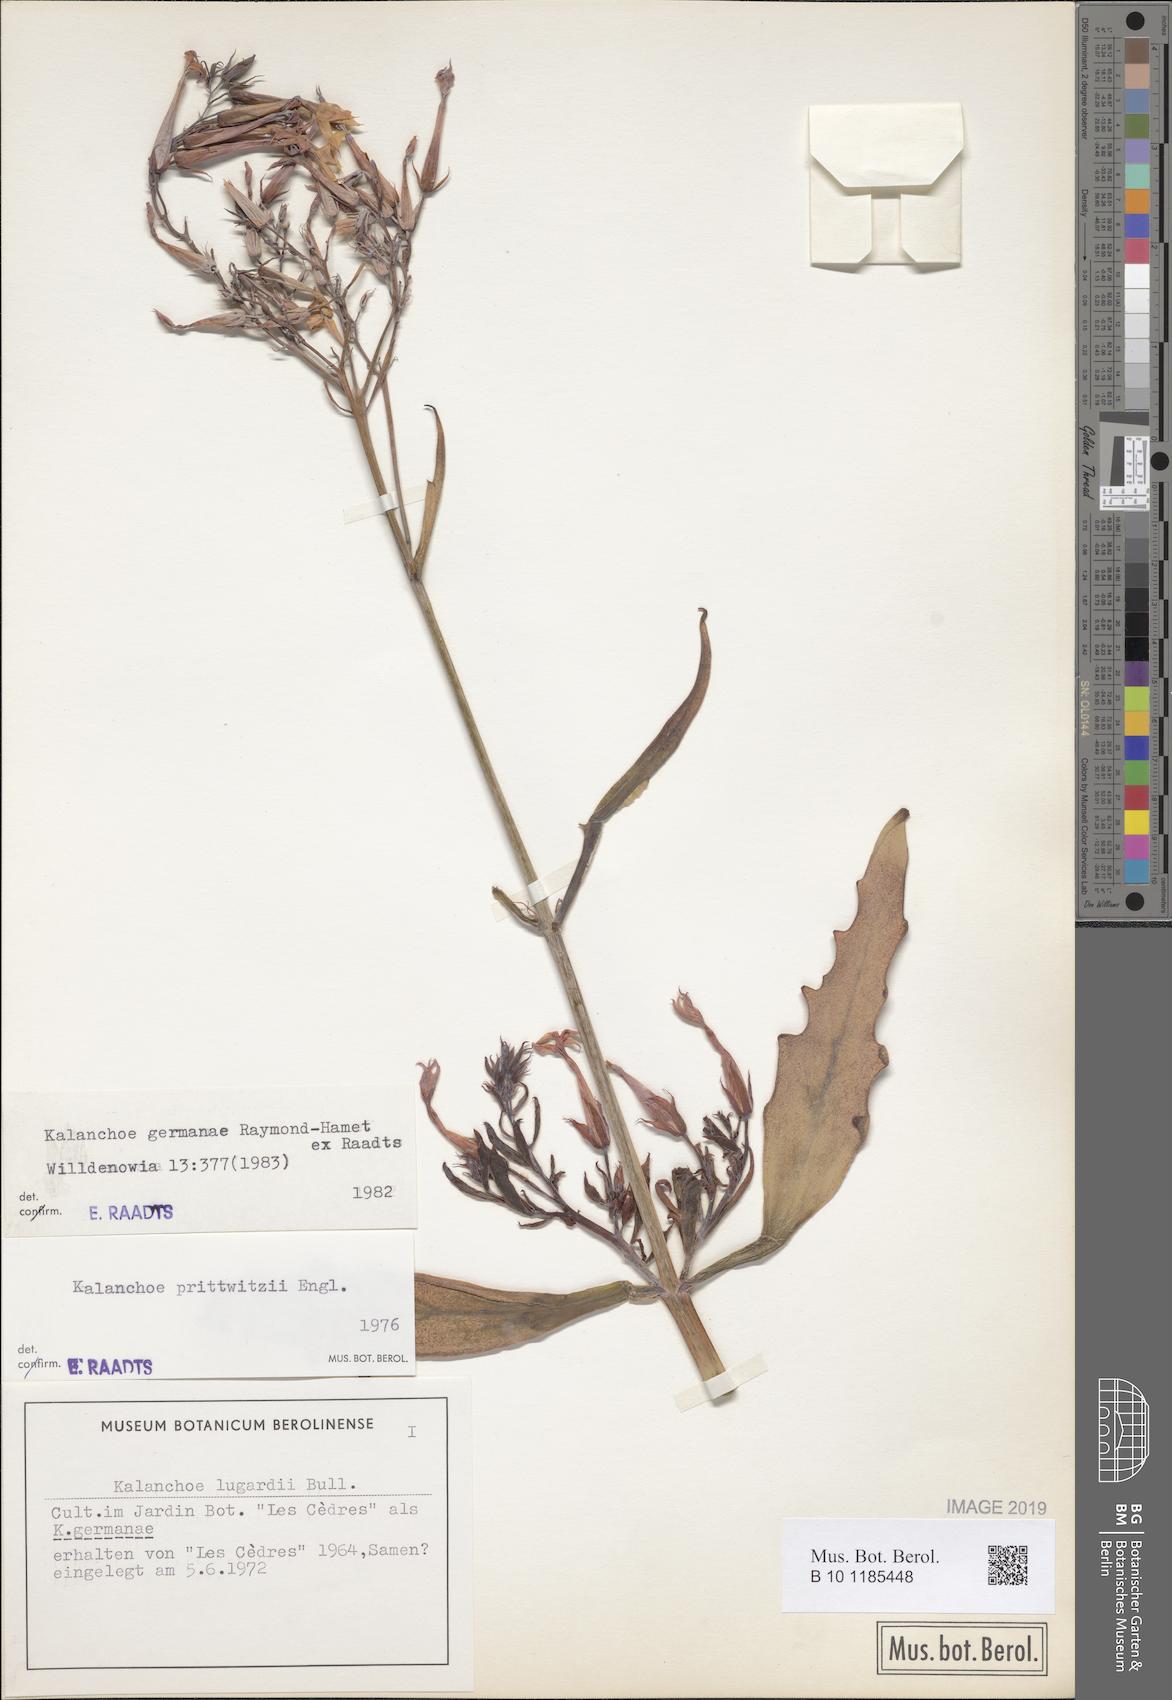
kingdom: Plantae
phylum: Tracheophyta
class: Magnoliopsida
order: Saxifragales
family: Crassulaceae
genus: Kalanchoe
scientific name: Kalanchoe germanae
